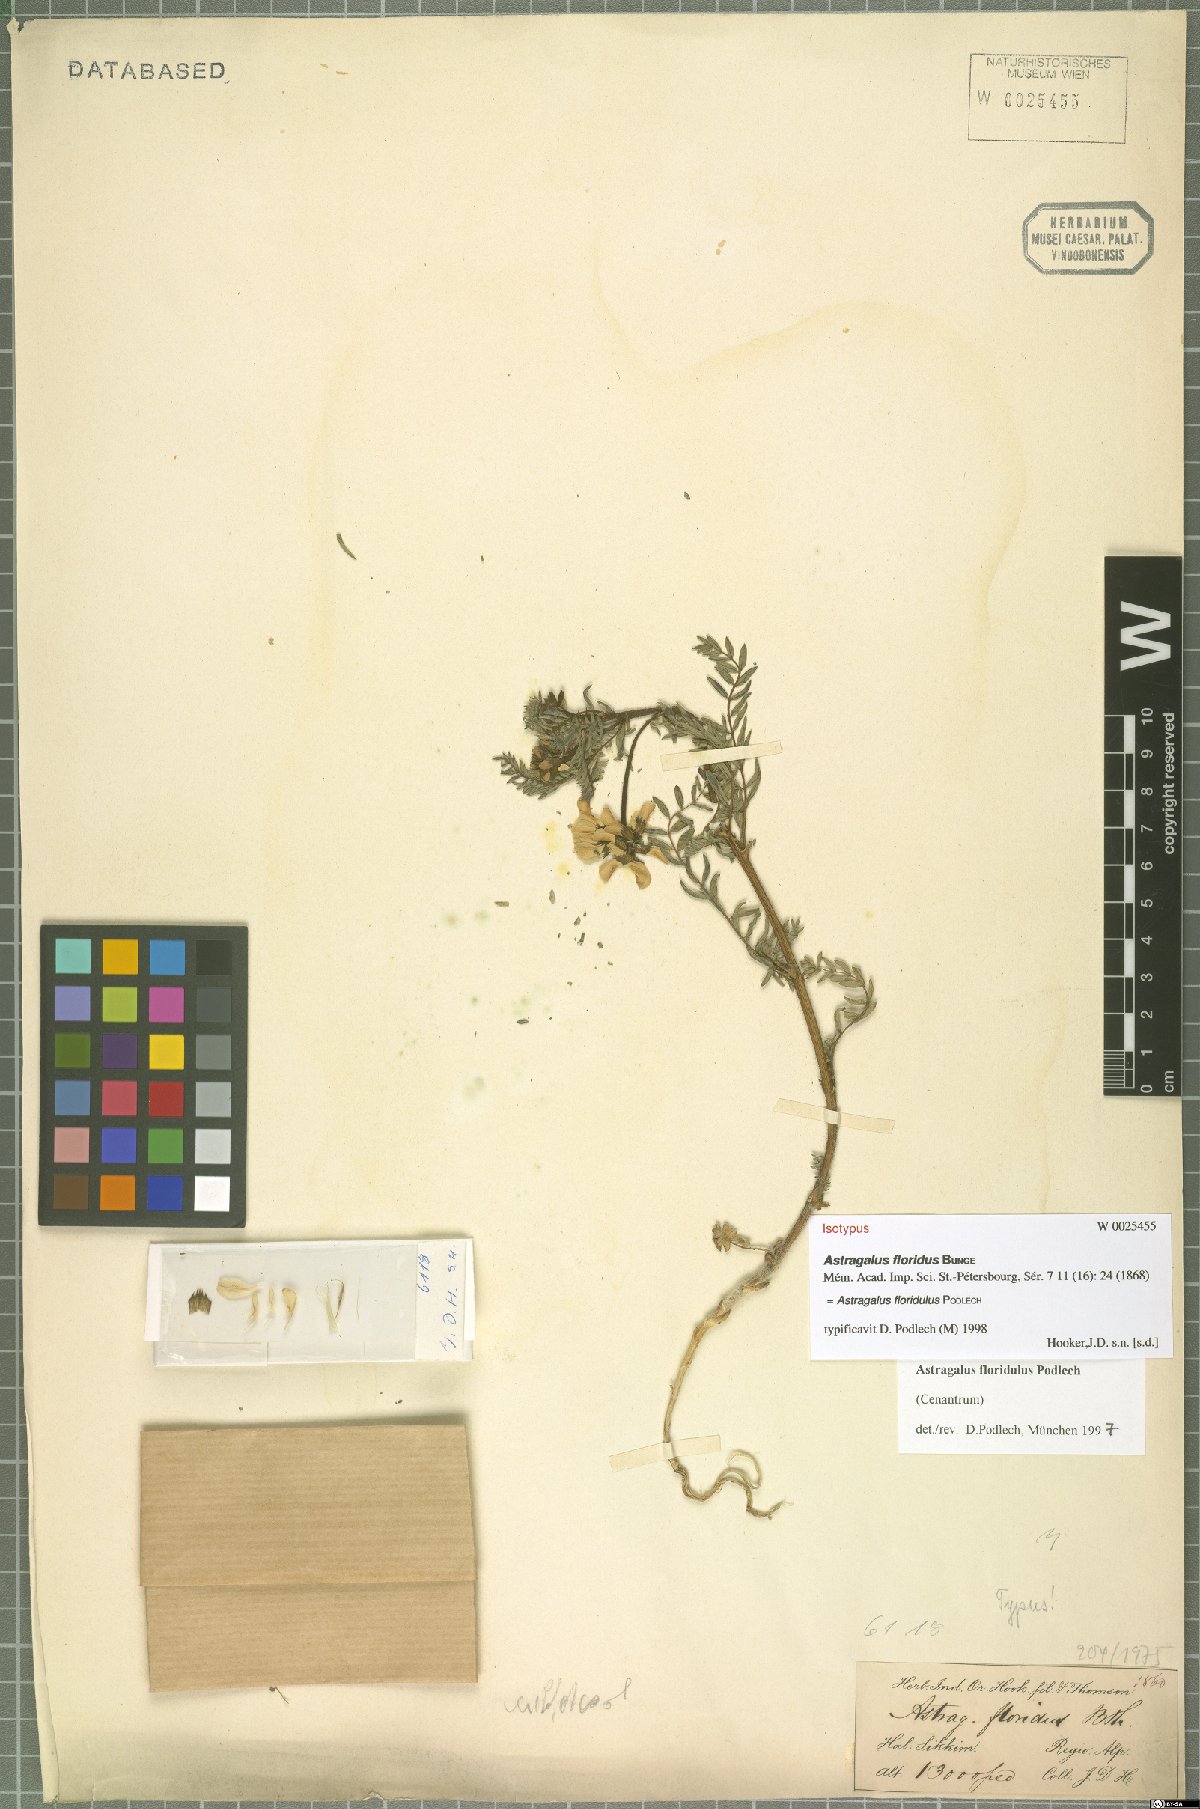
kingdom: Plantae
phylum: Tracheophyta
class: Magnoliopsida
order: Fabales
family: Fabaceae
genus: Astragalus
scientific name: Astragalus floridulus
